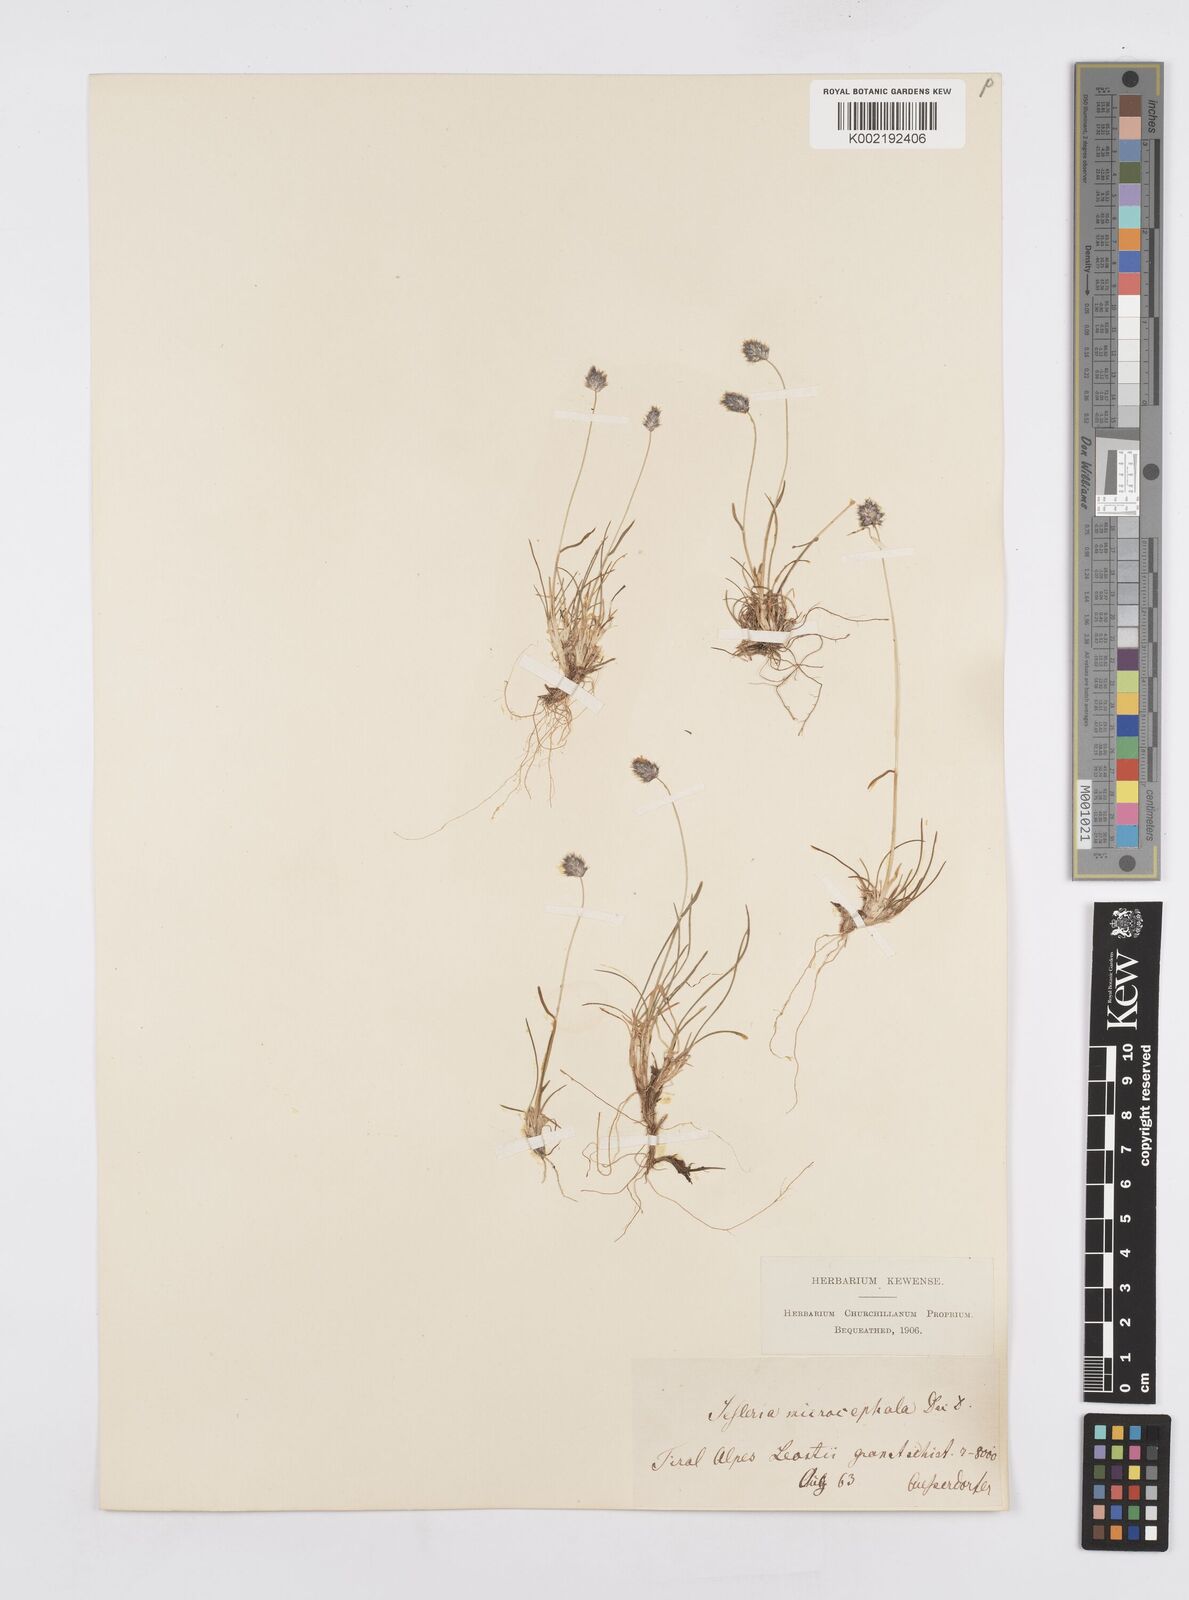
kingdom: Plantae
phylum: Tracheophyta
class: Liliopsida
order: Poales
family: Poaceae
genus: Psilathera
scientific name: Psilathera ovata
